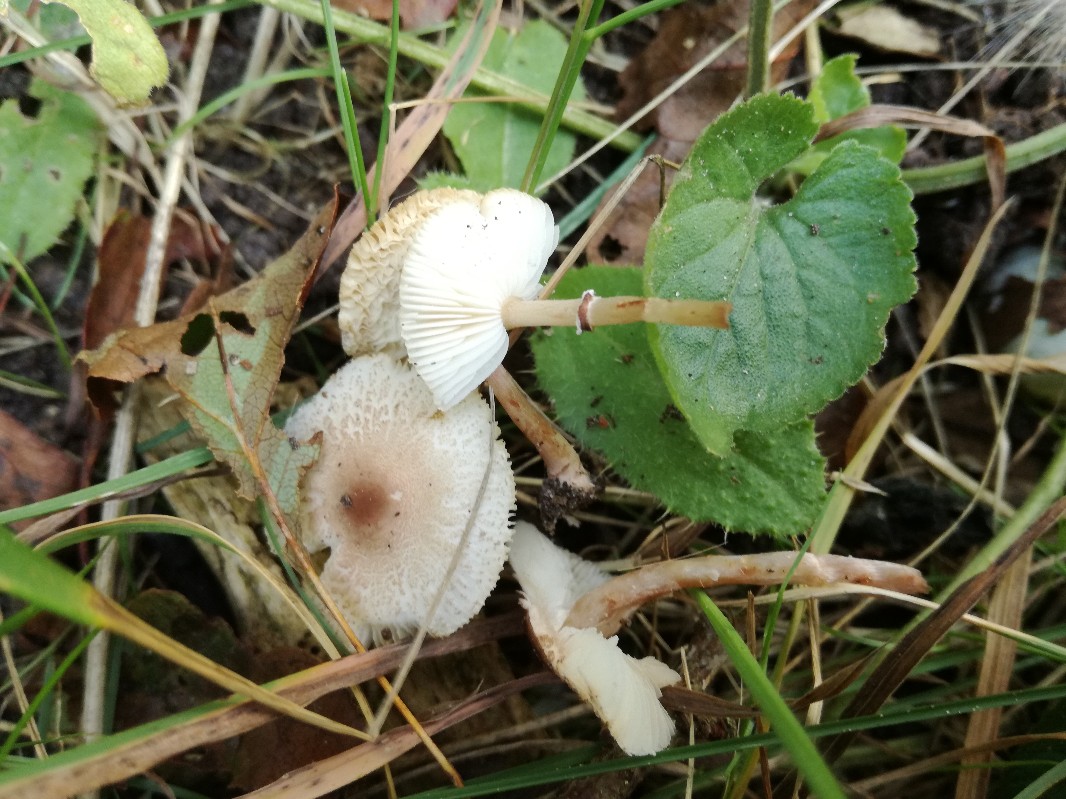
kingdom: Fungi
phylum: Basidiomycota
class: Agaricomycetes
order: Agaricales
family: Agaricaceae
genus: Lepiota
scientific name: Lepiota lilacea
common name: lillabrun parasolhat
